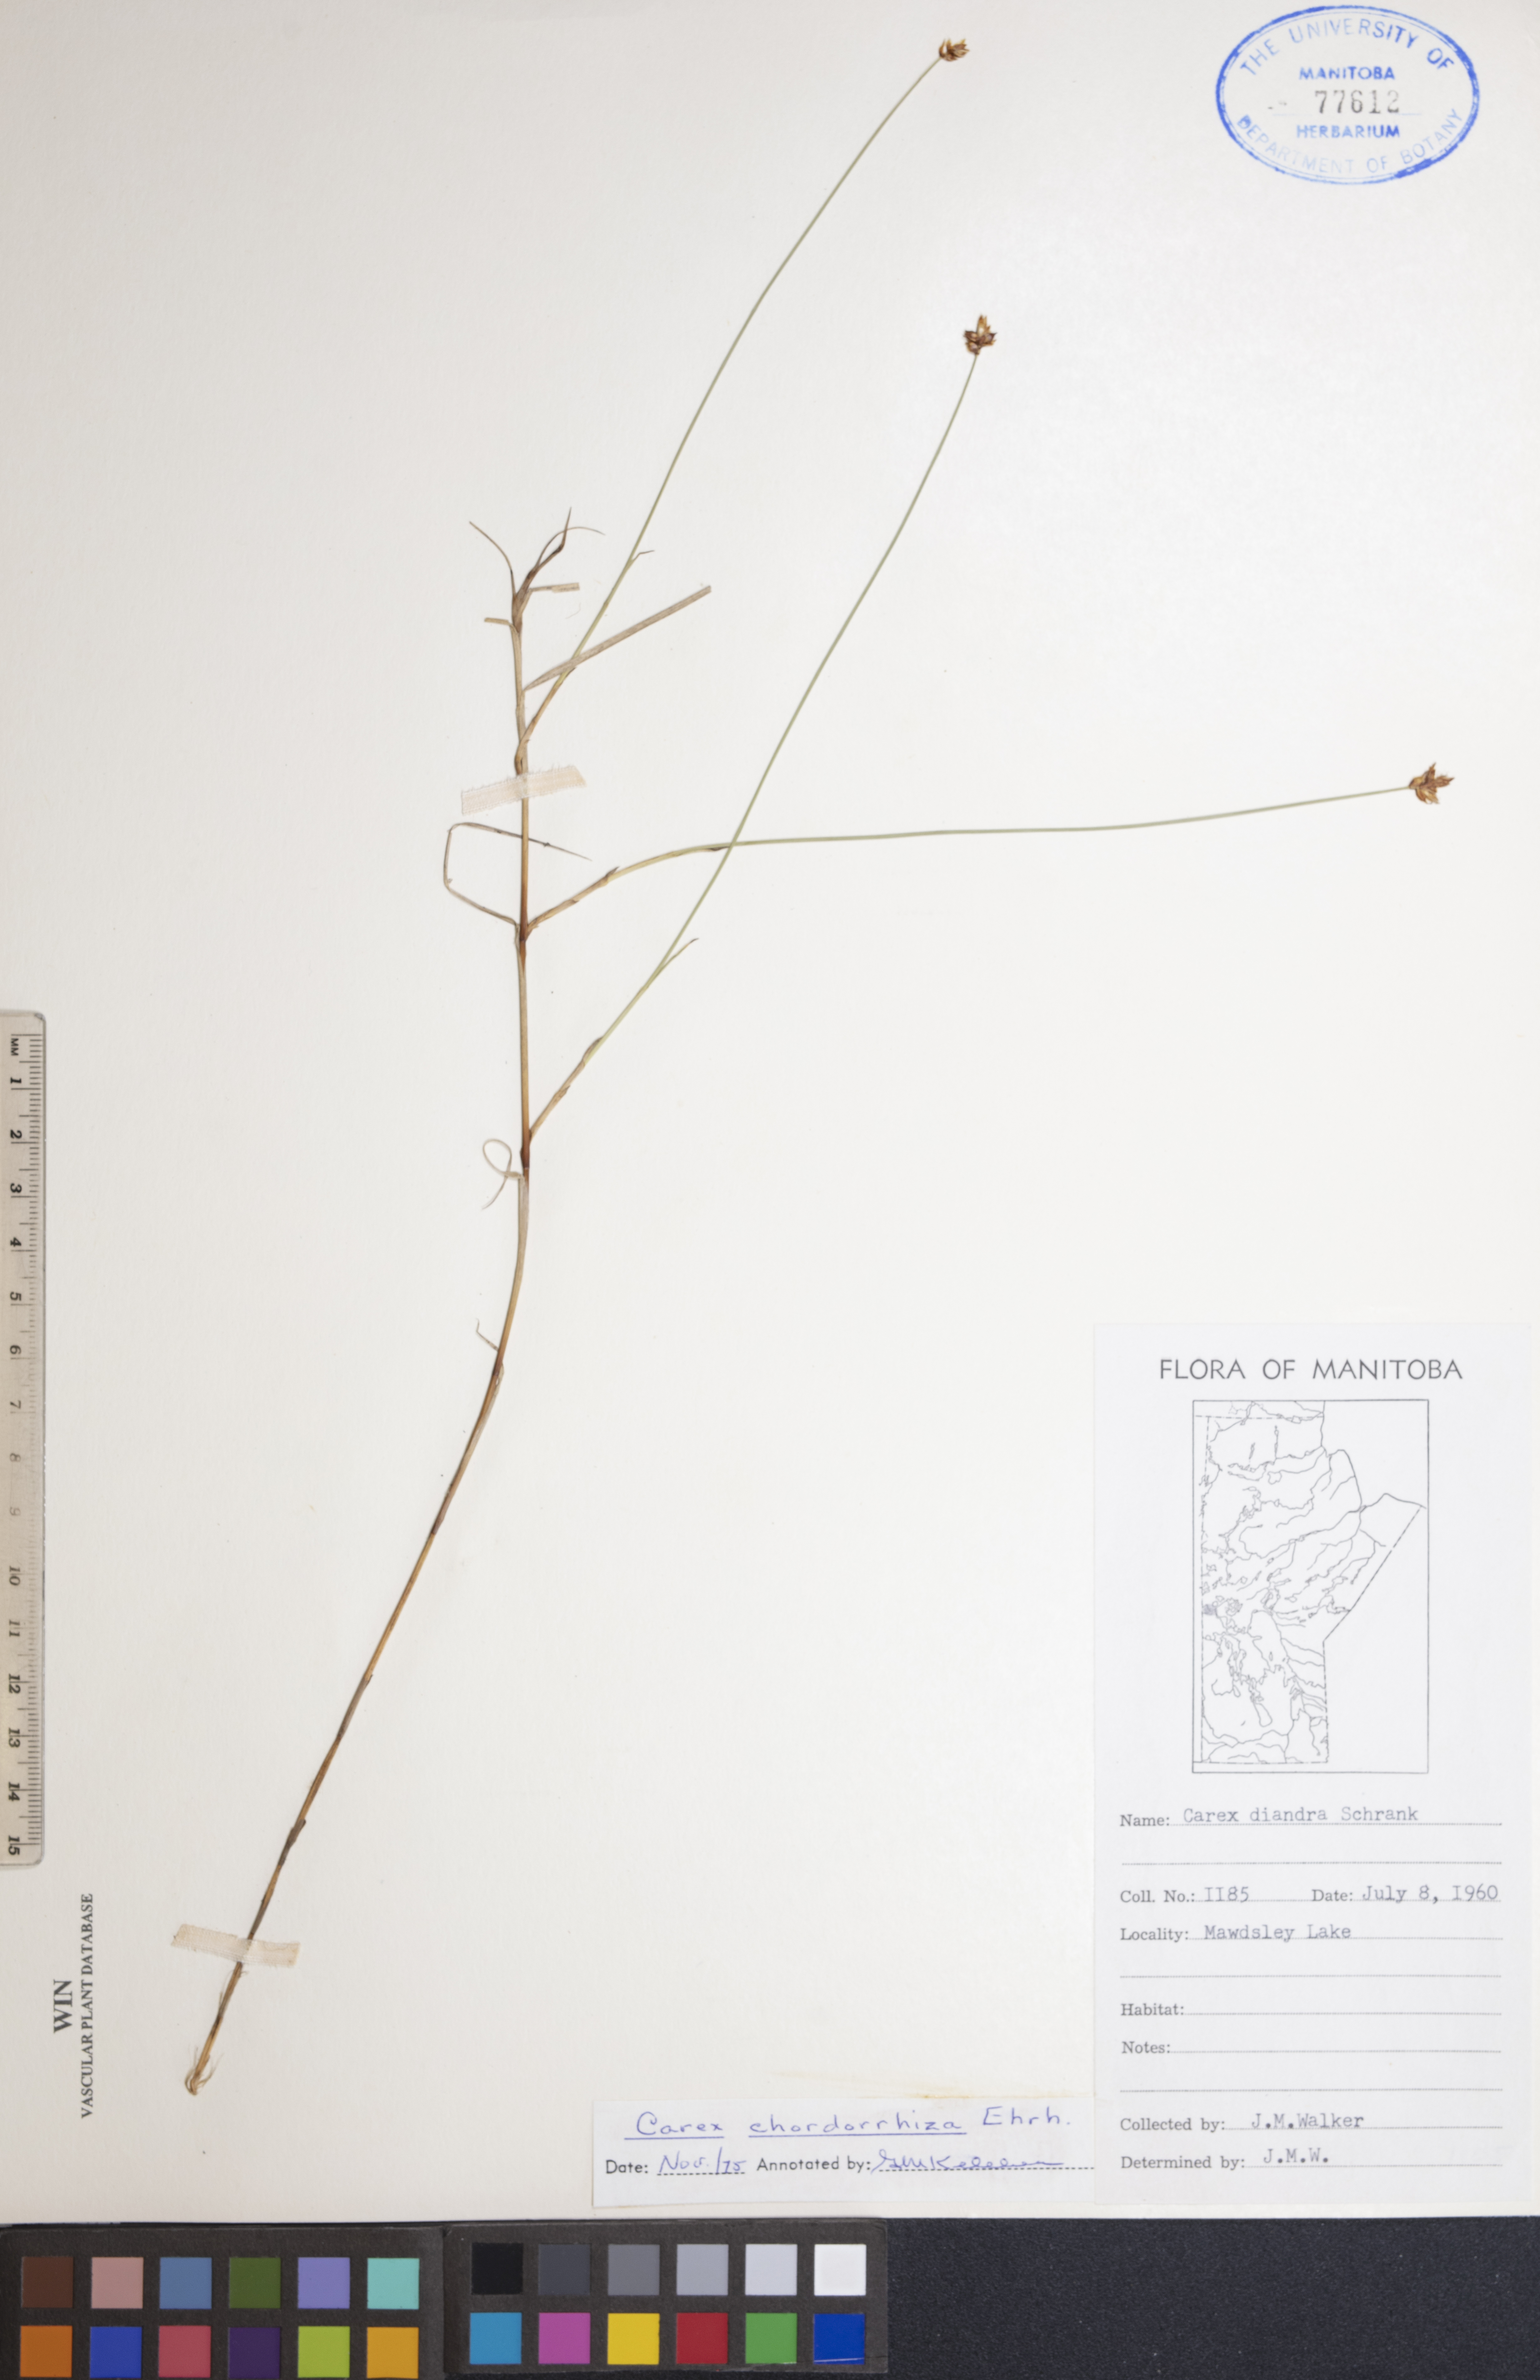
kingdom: Plantae
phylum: Tracheophyta
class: Liliopsida
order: Poales
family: Cyperaceae
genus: Carex
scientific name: Carex chordorrhiza
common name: String sedge
